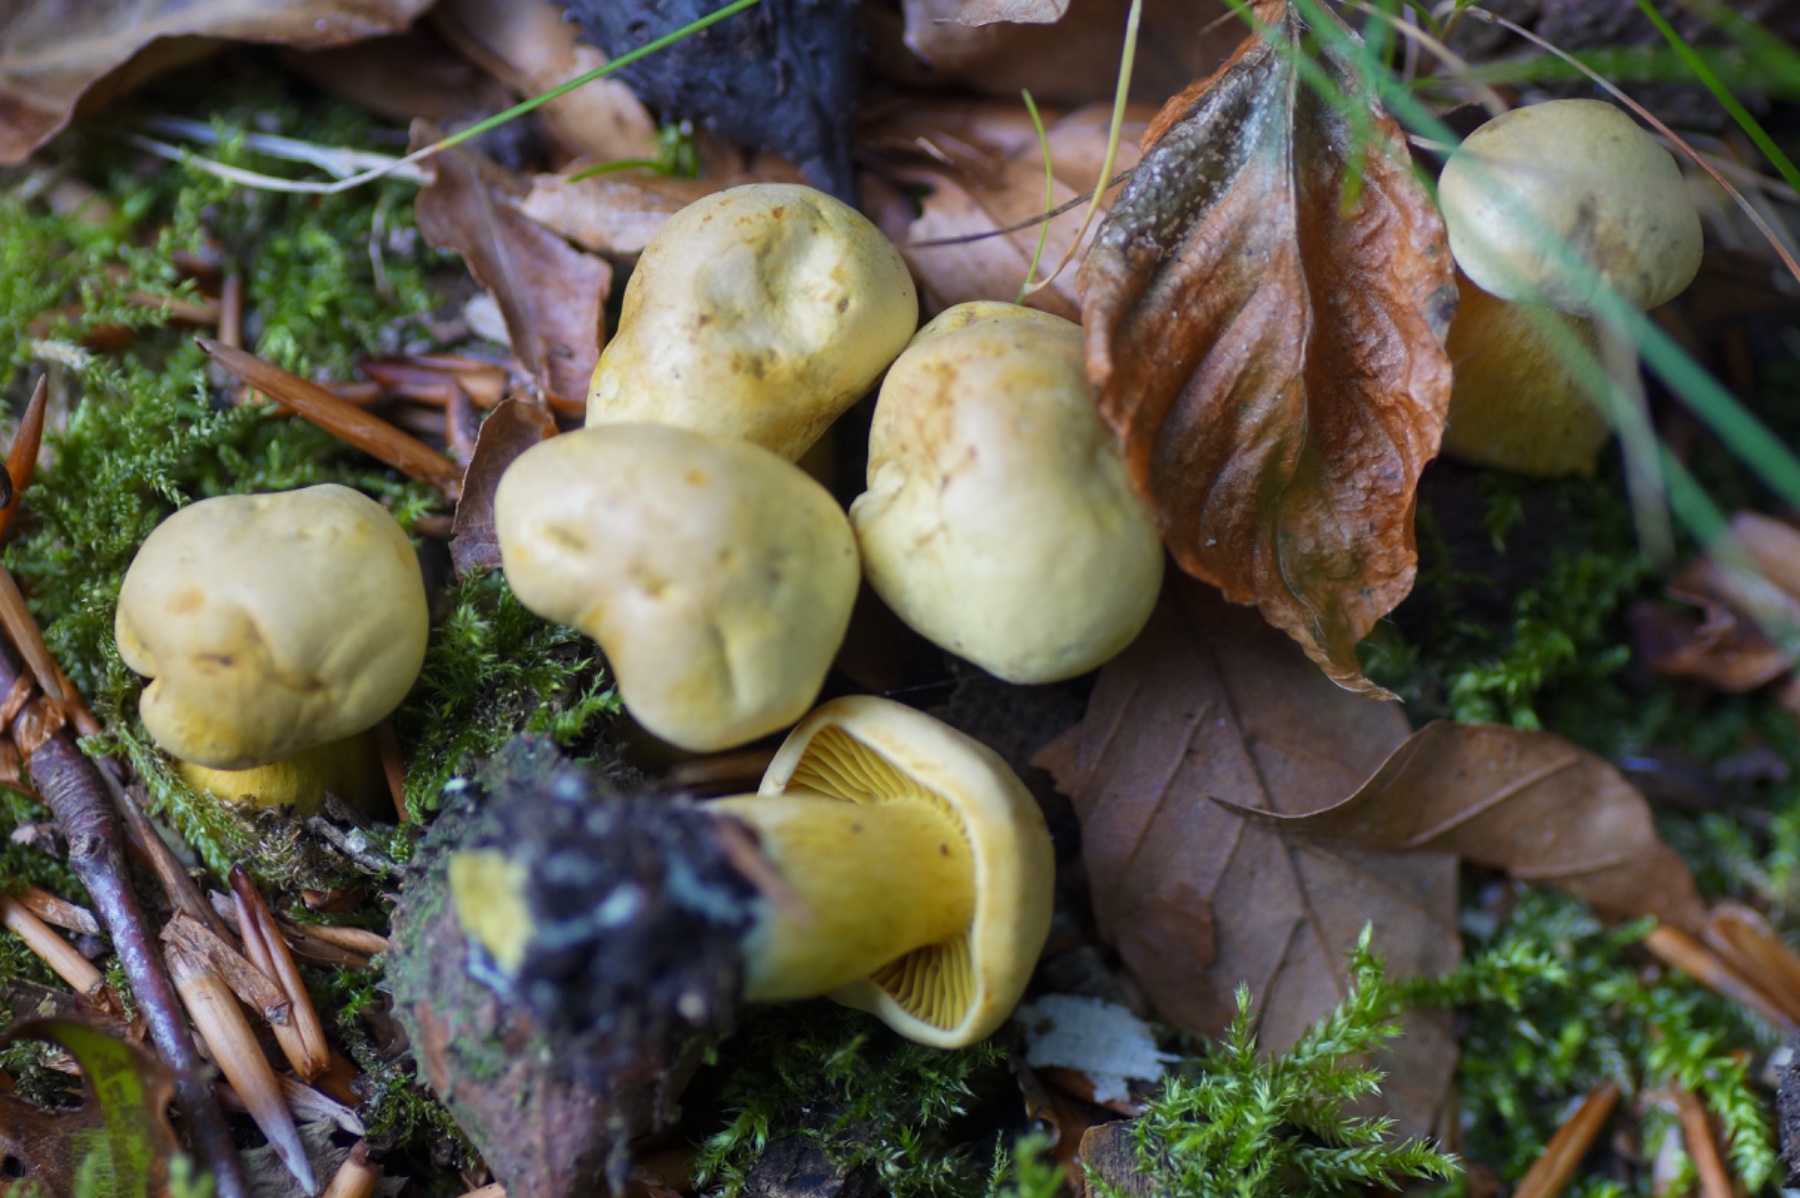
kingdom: Fungi
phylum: Basidiomycota
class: Agaricomycetes
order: Agaricales
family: Tricholomataceae
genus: Tricholoma
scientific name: Tricholoma sulphureum
